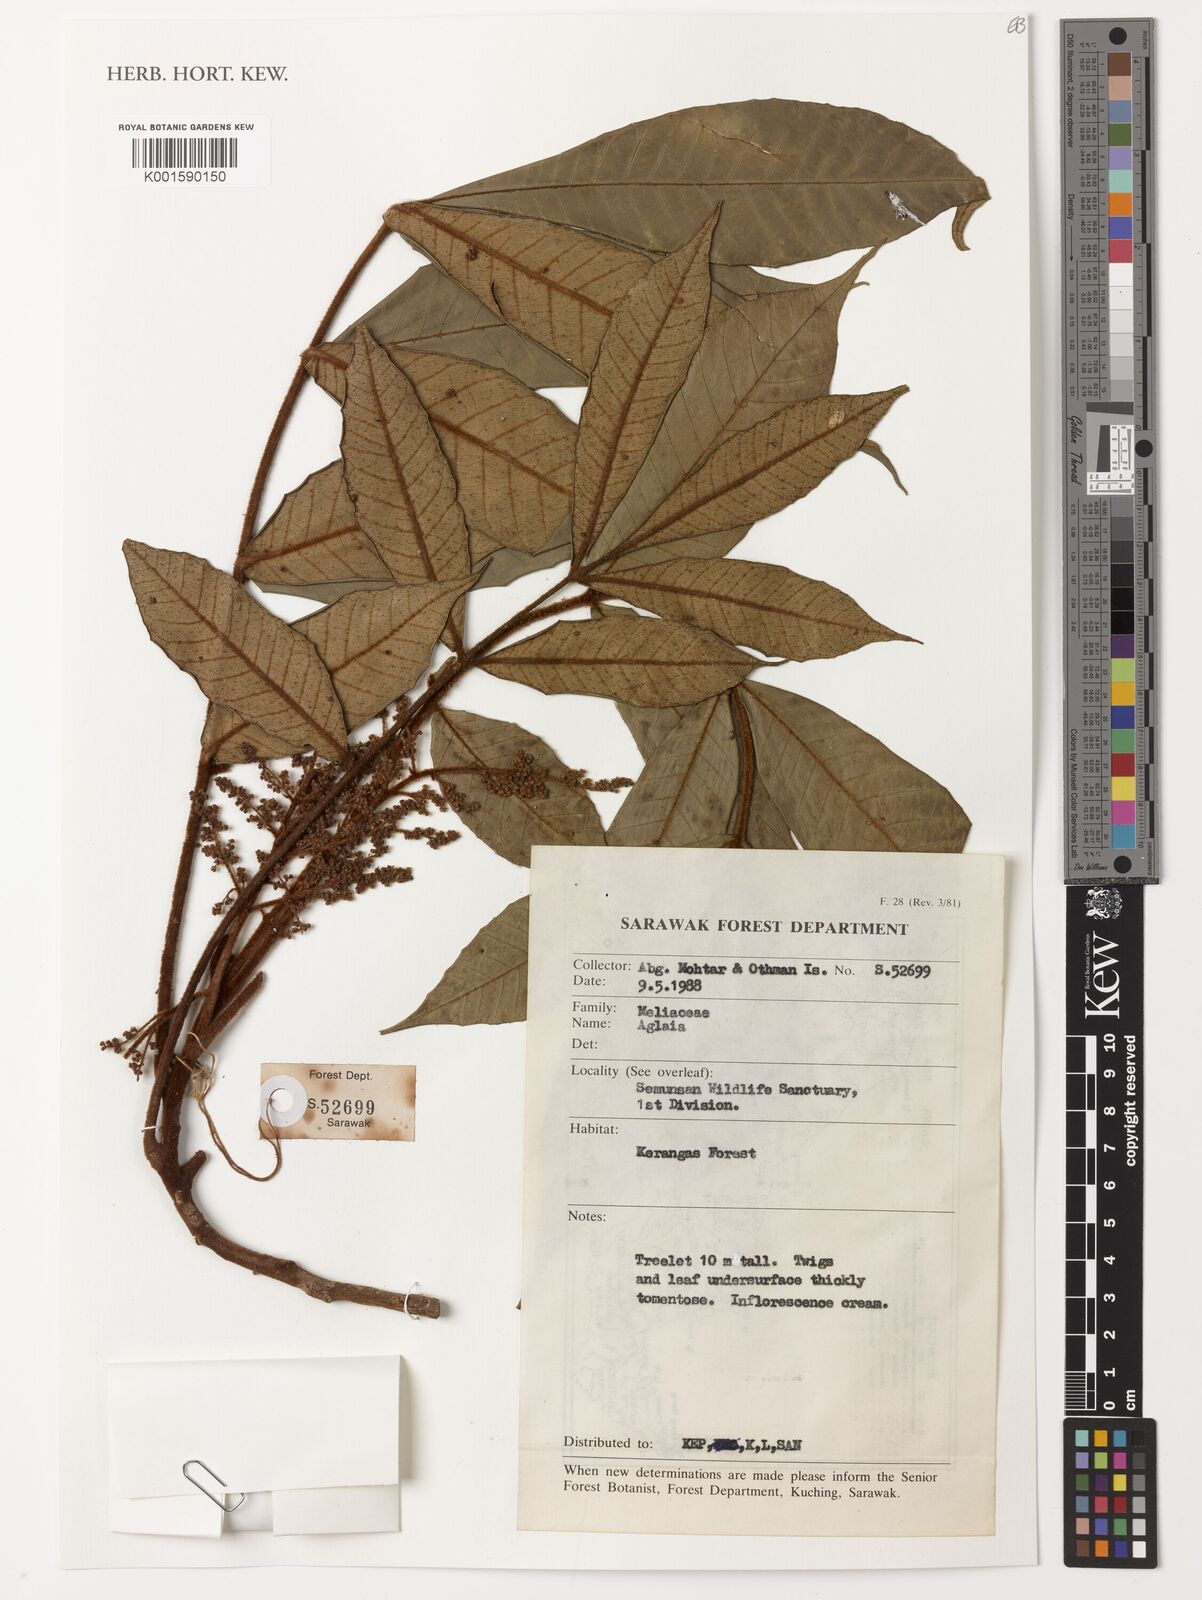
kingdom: Plantae
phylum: Tracheophyta
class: Magnoliopsida
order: Sapindales
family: Meliaceae
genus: Aglaia
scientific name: Aglaia
